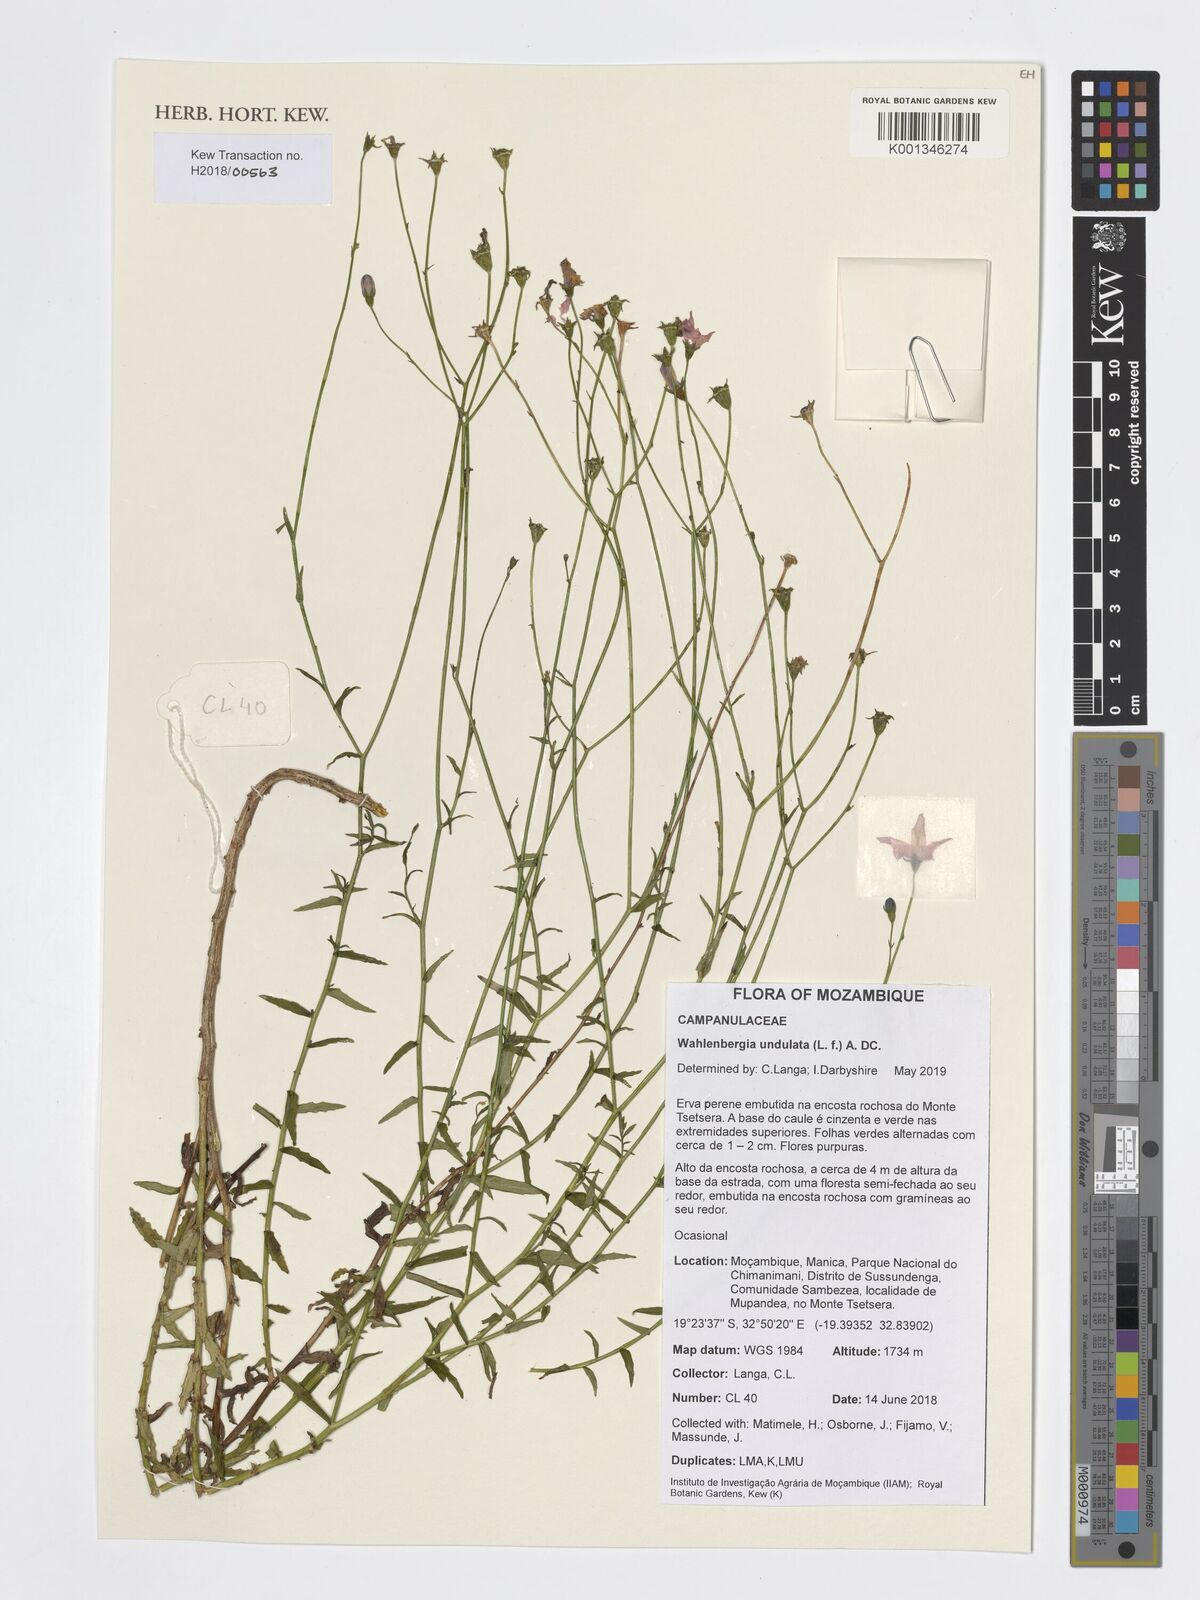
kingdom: Plantae
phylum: Tracheophyta
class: Magnoliopsida
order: Asterales
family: Campanulaceae
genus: Wahlenbergia
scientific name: Wahlenbergia undulata
